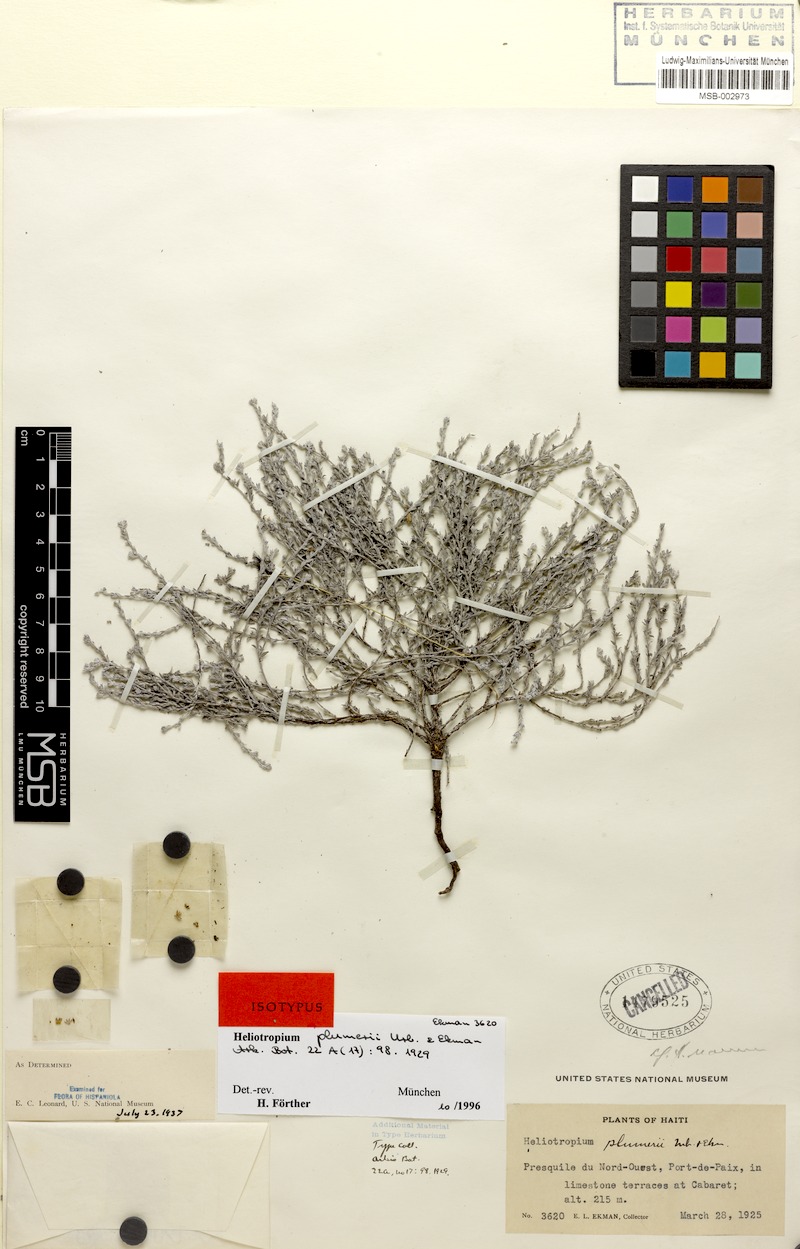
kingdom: Plantae
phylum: Tracheophyta
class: Magnoliopsida
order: Boraginales
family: Heliotropiaceae
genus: Euploca
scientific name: Euploca microphylla
